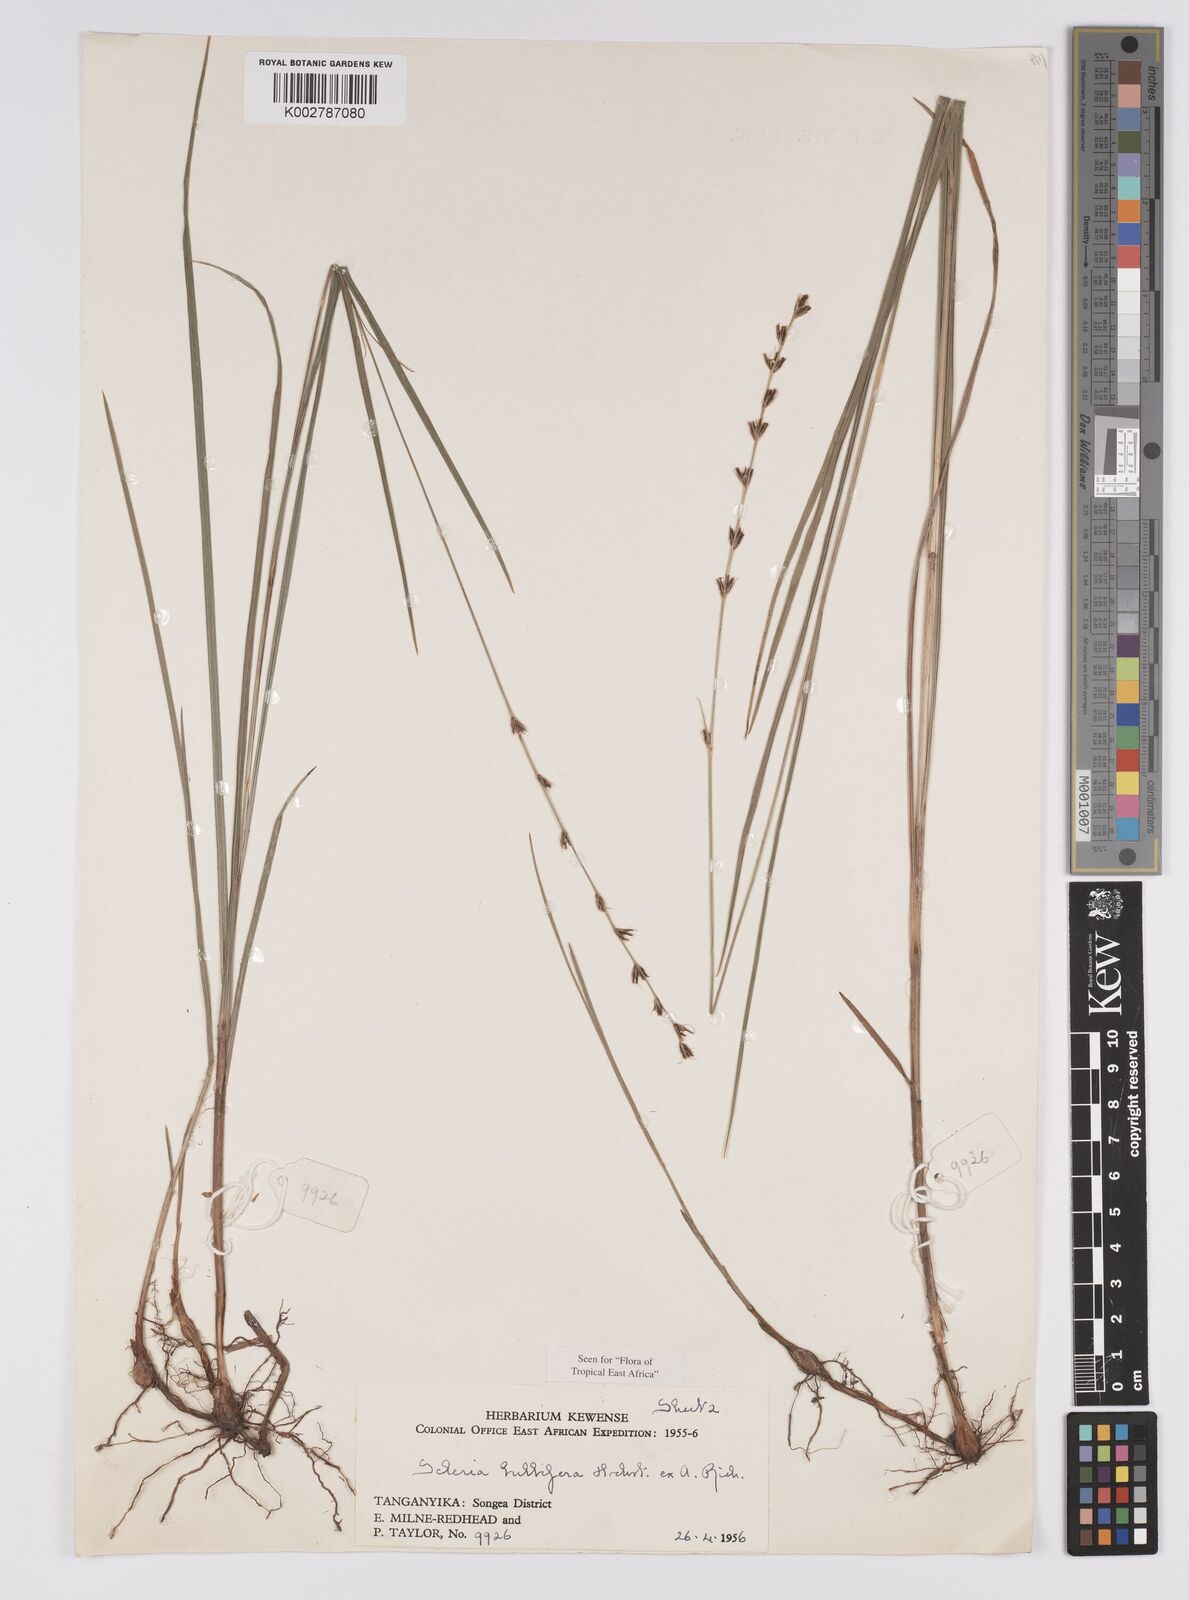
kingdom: Plantae
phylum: Tracheophyta
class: Liliopsida
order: Poales
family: Cyperaceae
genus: Scleria
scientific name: Scleria bulbifera
